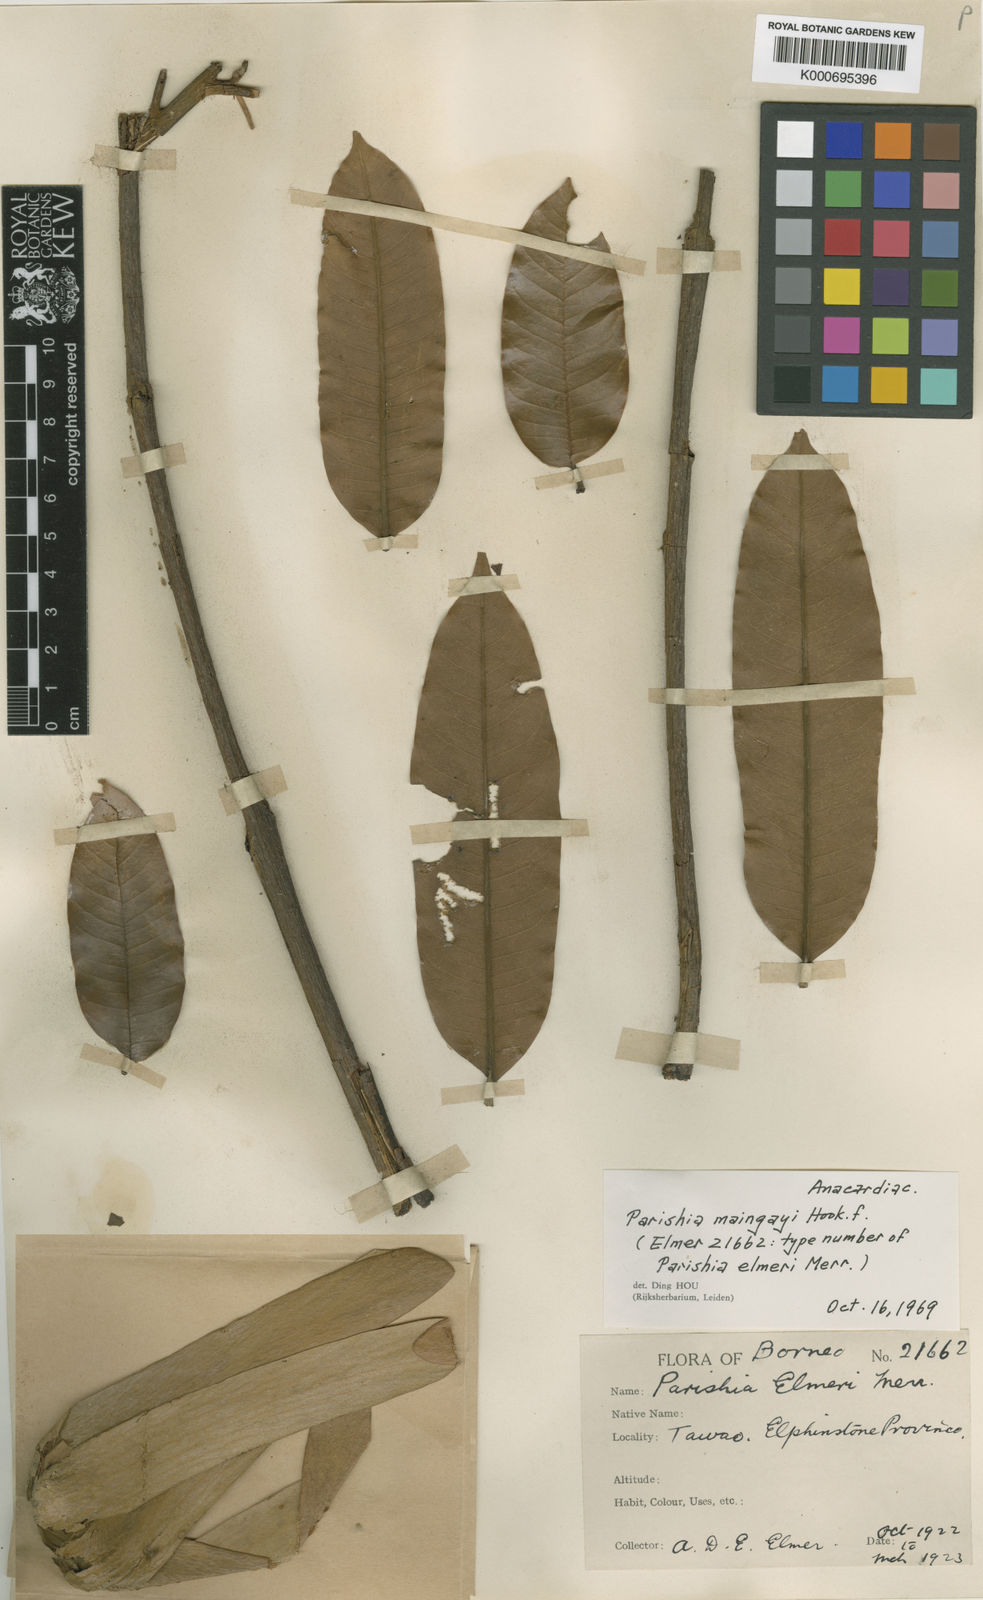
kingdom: Plantae
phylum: Tracheophyta
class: Magnoliopsida
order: Sapindales
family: Anacardiaceae
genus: Parishia
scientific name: Parishia maingayi
